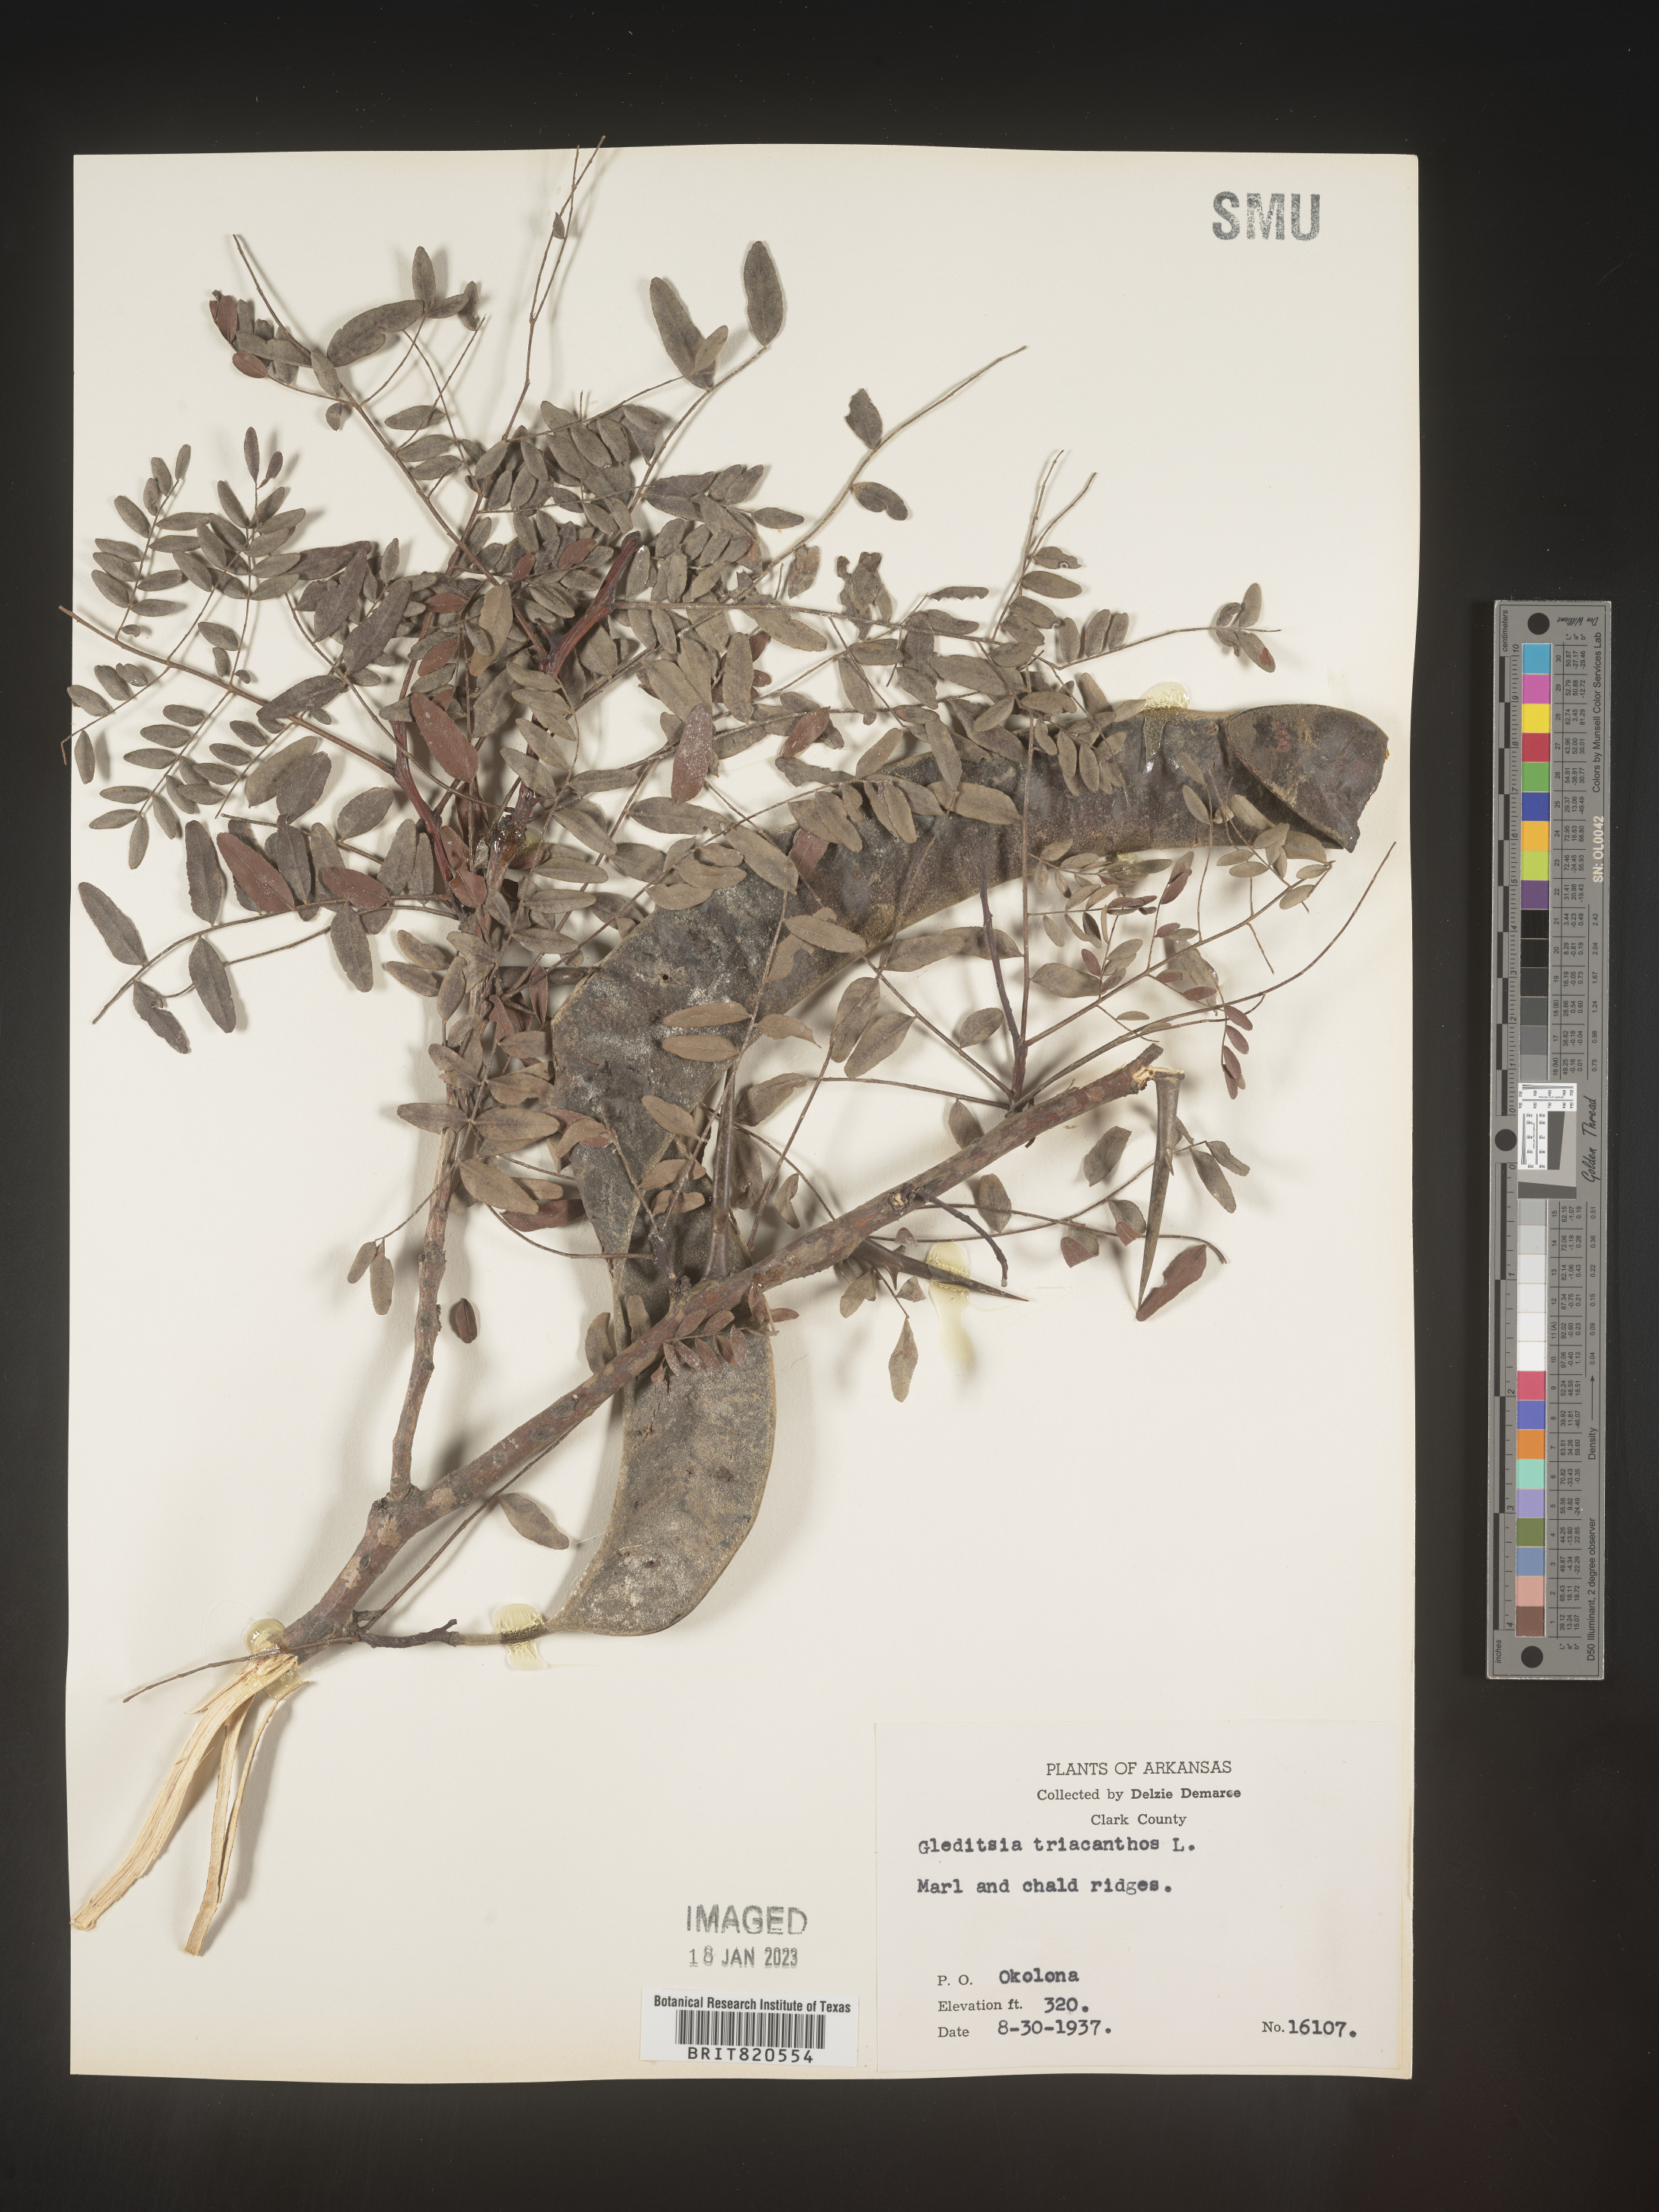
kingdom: Plantae
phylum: Tracheophyta
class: Magnoliopsida
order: Fabales
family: Fabaceae
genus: Gleditsia
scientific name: Gleditsia triacanthos
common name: Common honeylocust
